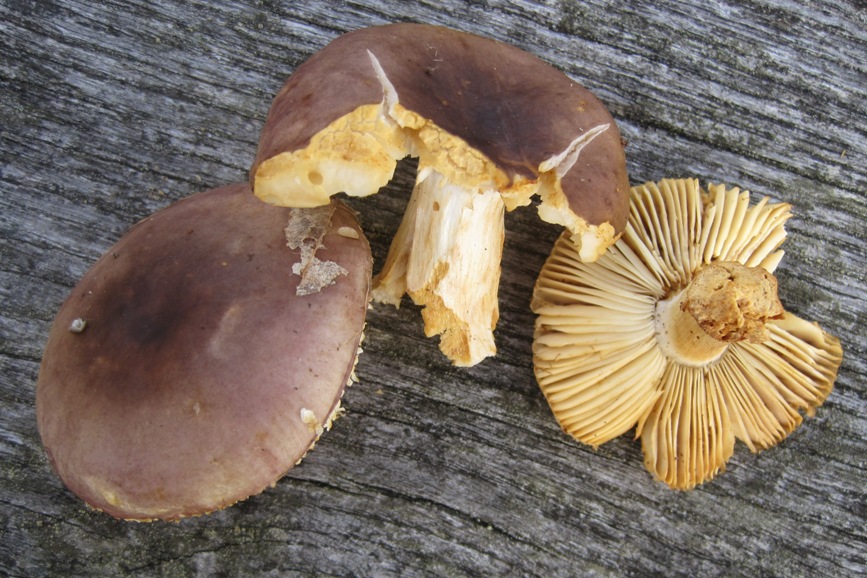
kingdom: Fungi
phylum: Basidiomycota
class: Agaricomycetes
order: Russulales
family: Russulaceae
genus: Russula
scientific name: Russula puellaris
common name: gulstokket skørhat
